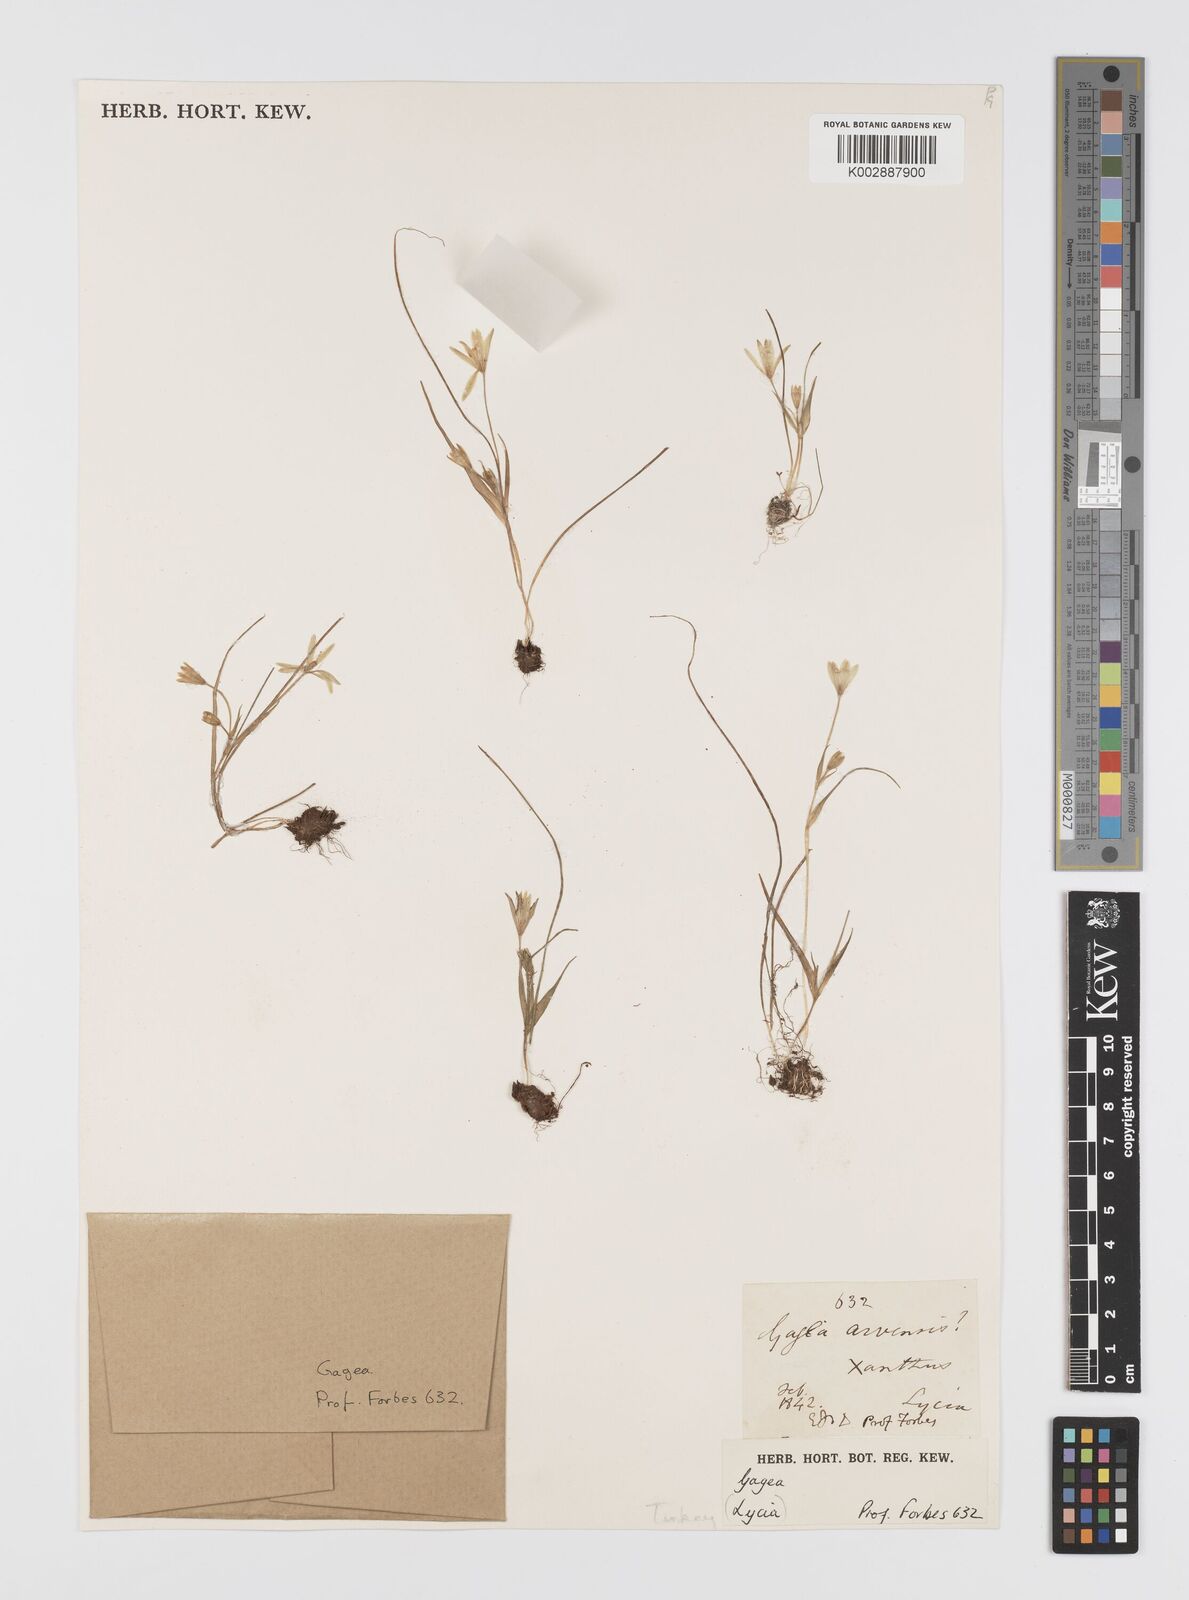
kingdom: Plantae
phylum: Tracheophyta
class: Liliopsida
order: Liliales
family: Liliaceae
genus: Gagea
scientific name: Gagea peduncularis
